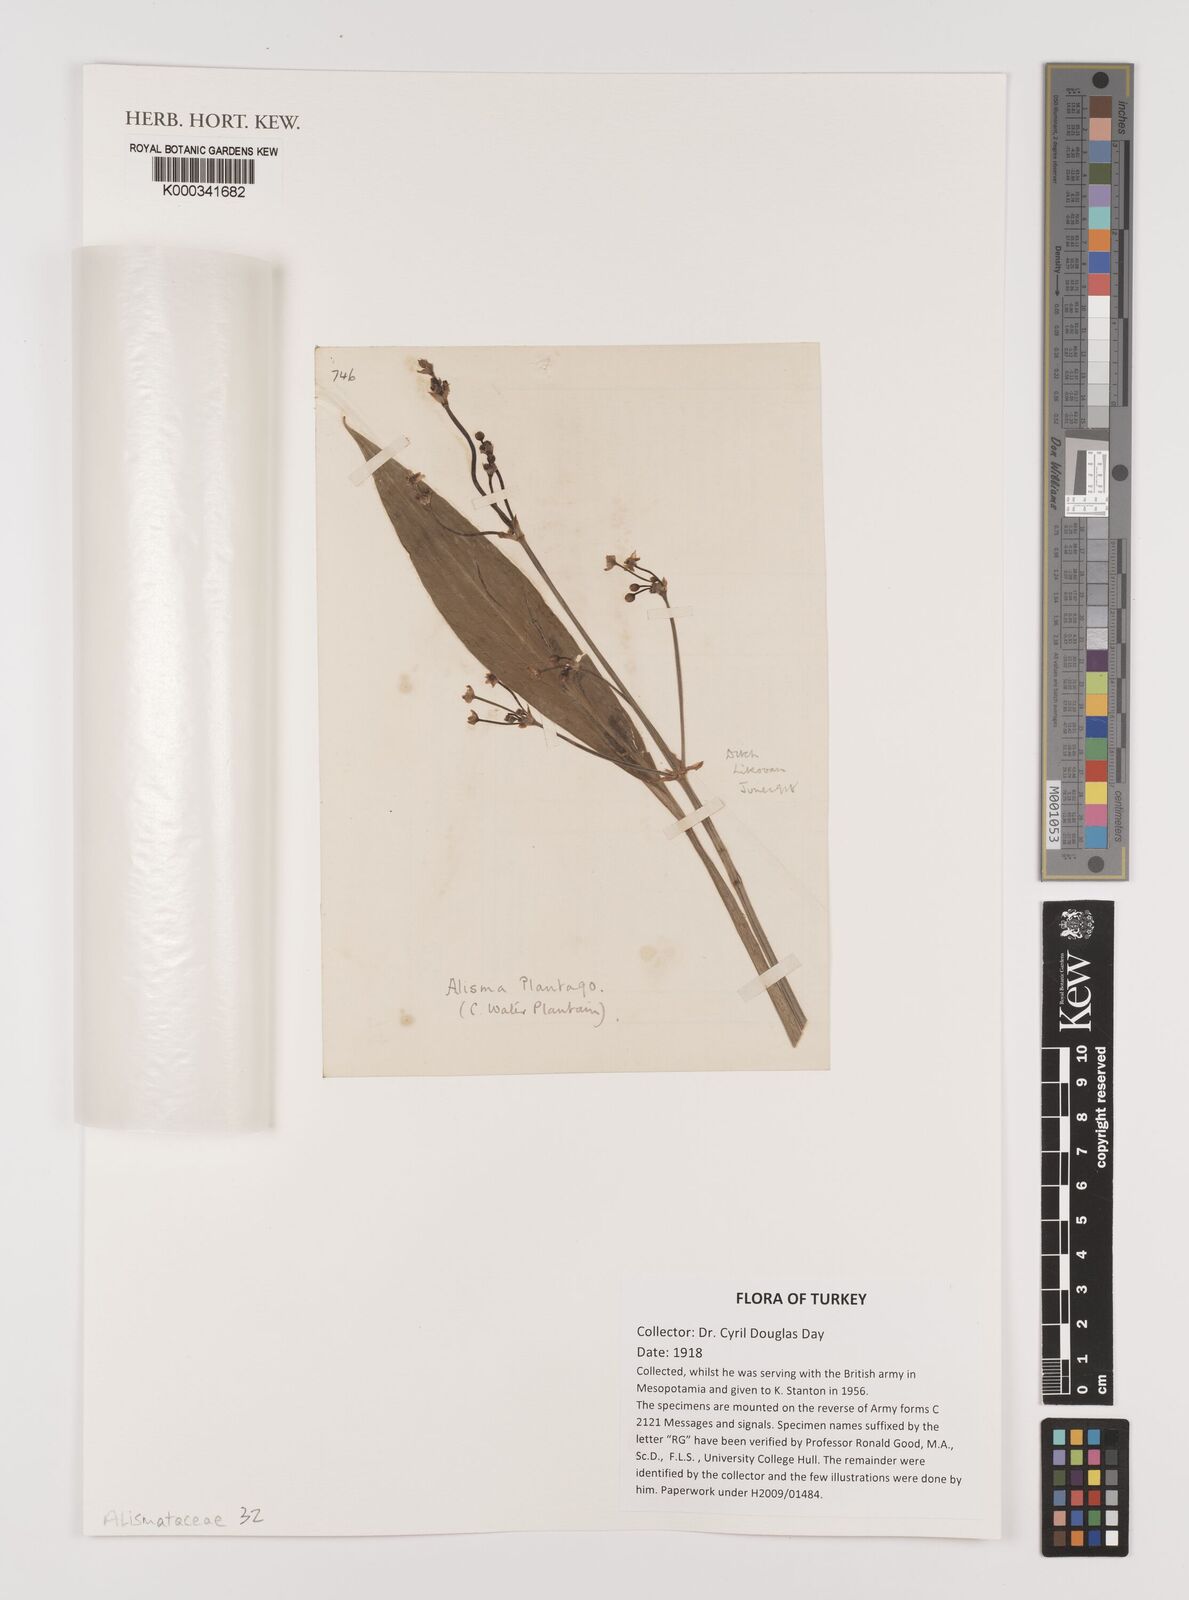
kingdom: Plantae
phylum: Tracheophyta
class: Liliopsida
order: Alismatales
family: Alismataceae
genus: Alisma
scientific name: Alisma plantago-aquatica
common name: Water-plantain
